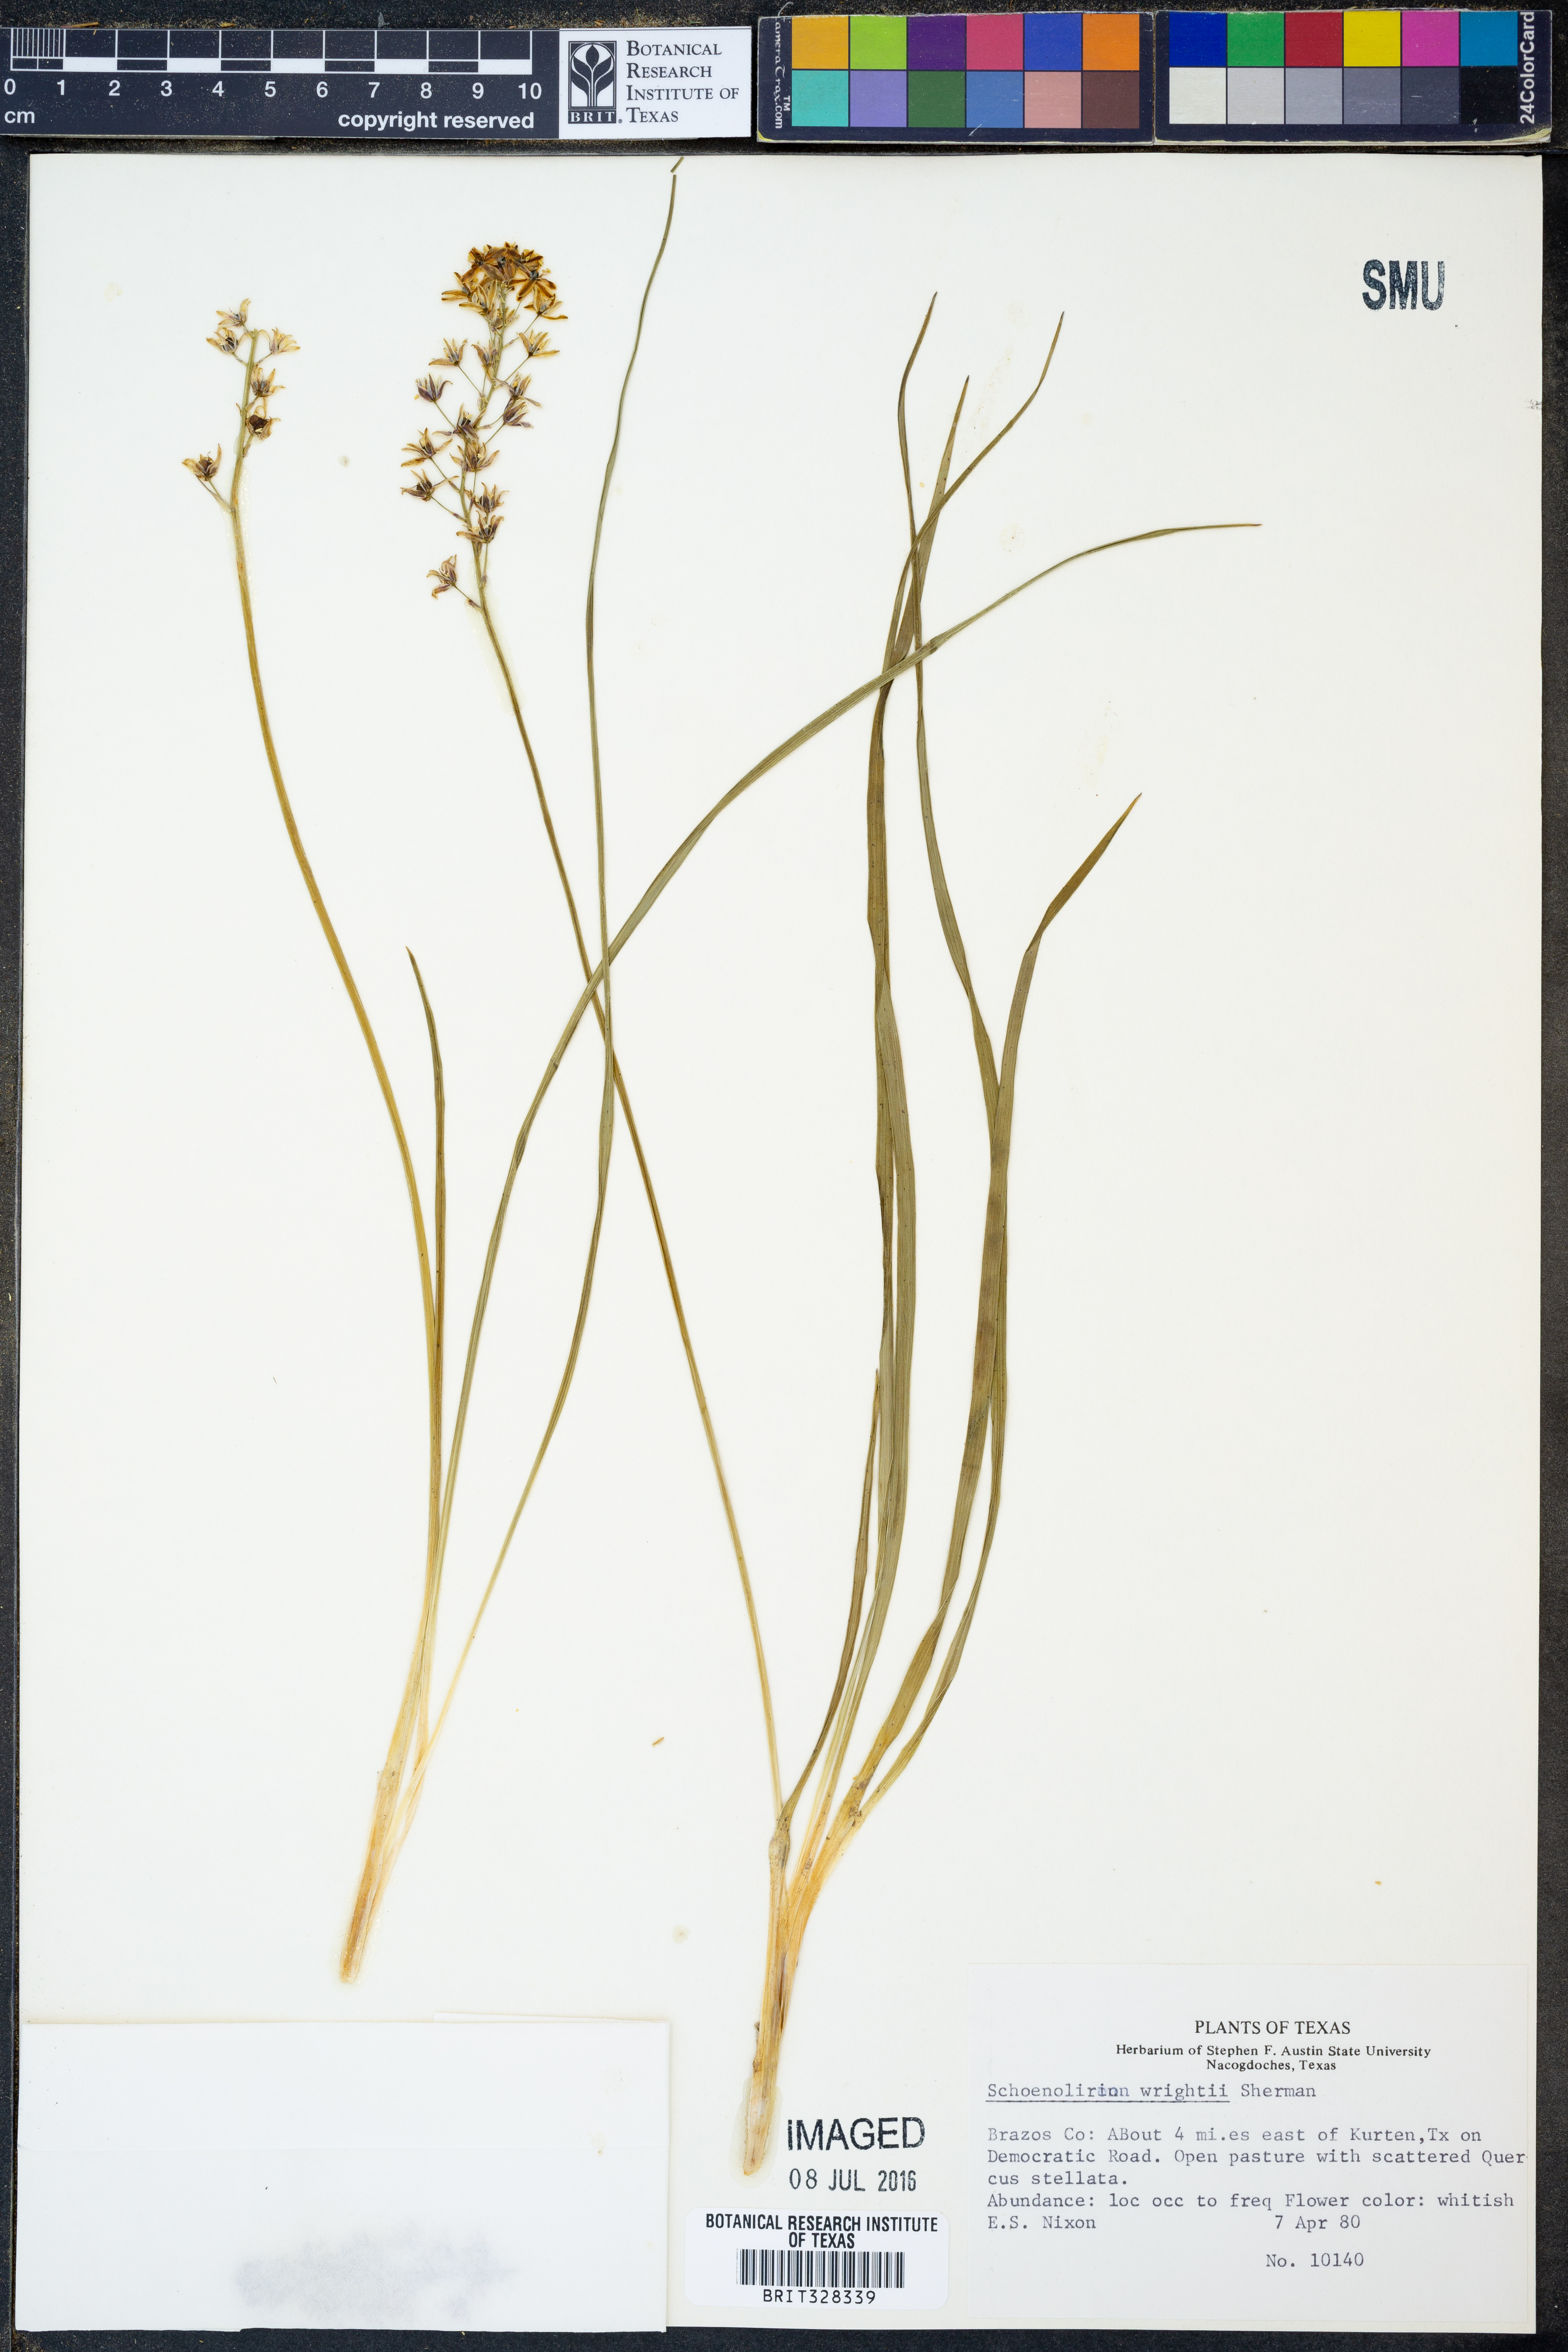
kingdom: Plantae
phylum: Tracheophyta
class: Liliopsida
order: Asparagales
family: Asparagaceae
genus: Schoenolirion
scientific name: Schoenolirion wrightii
